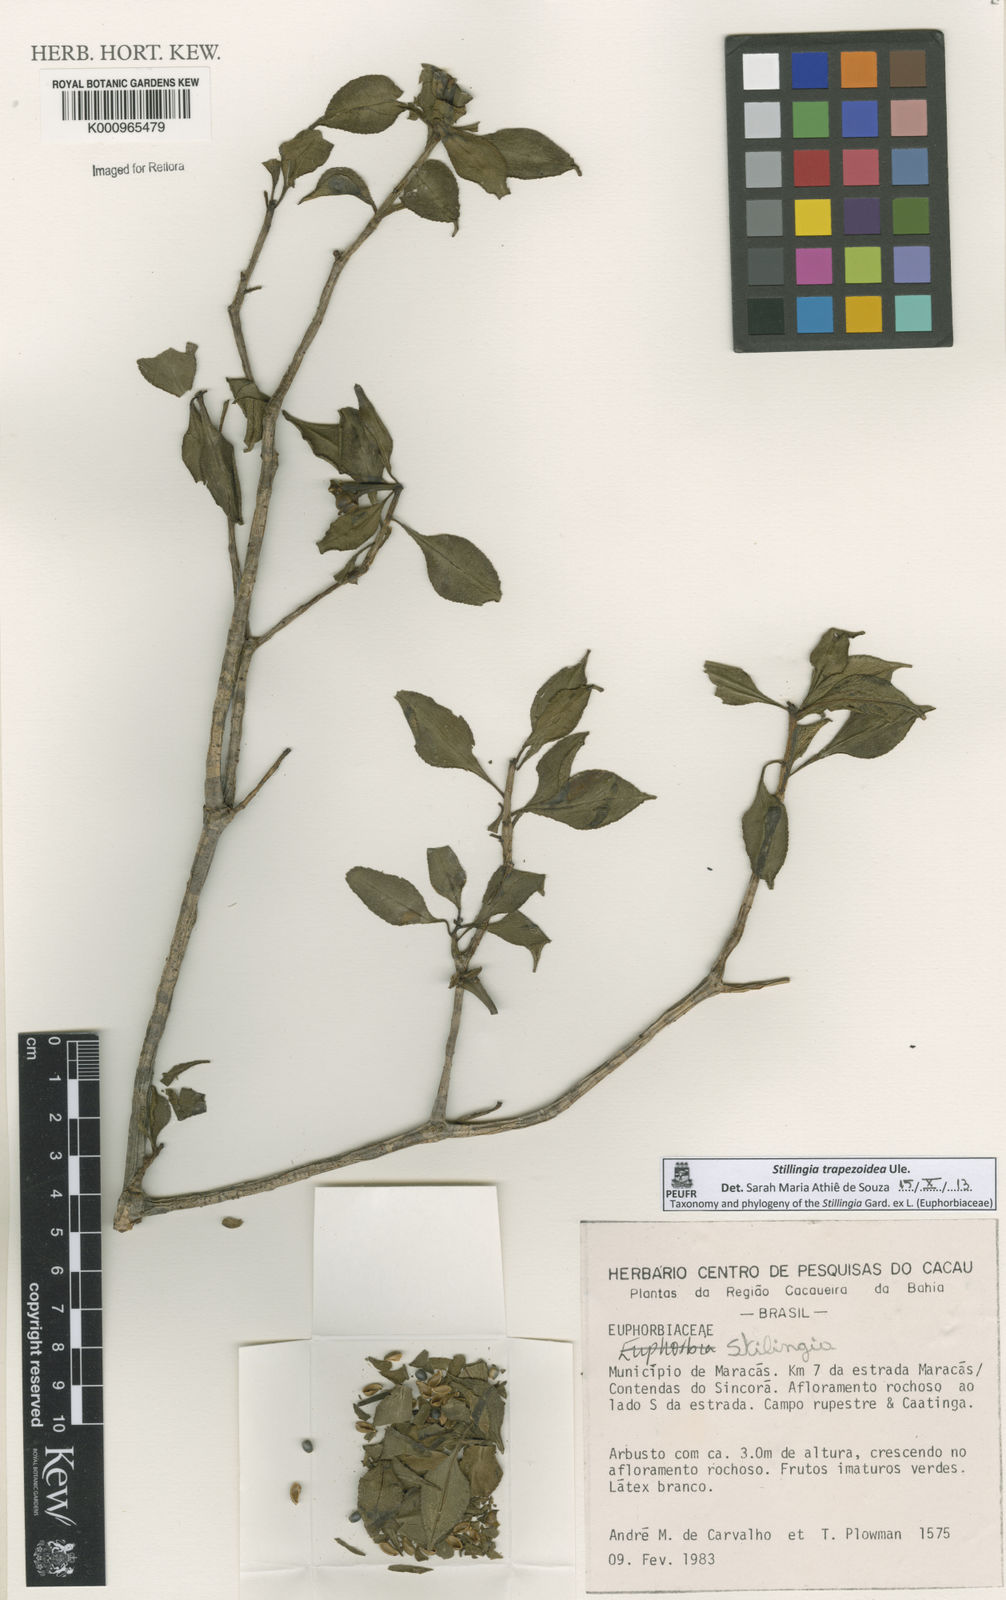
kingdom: Plantae
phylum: Tracheophyta
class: Magnoliopsida
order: Malpighiales
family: Euphorbiaceae
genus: Stillingia
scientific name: Stillingia trapezoidea
